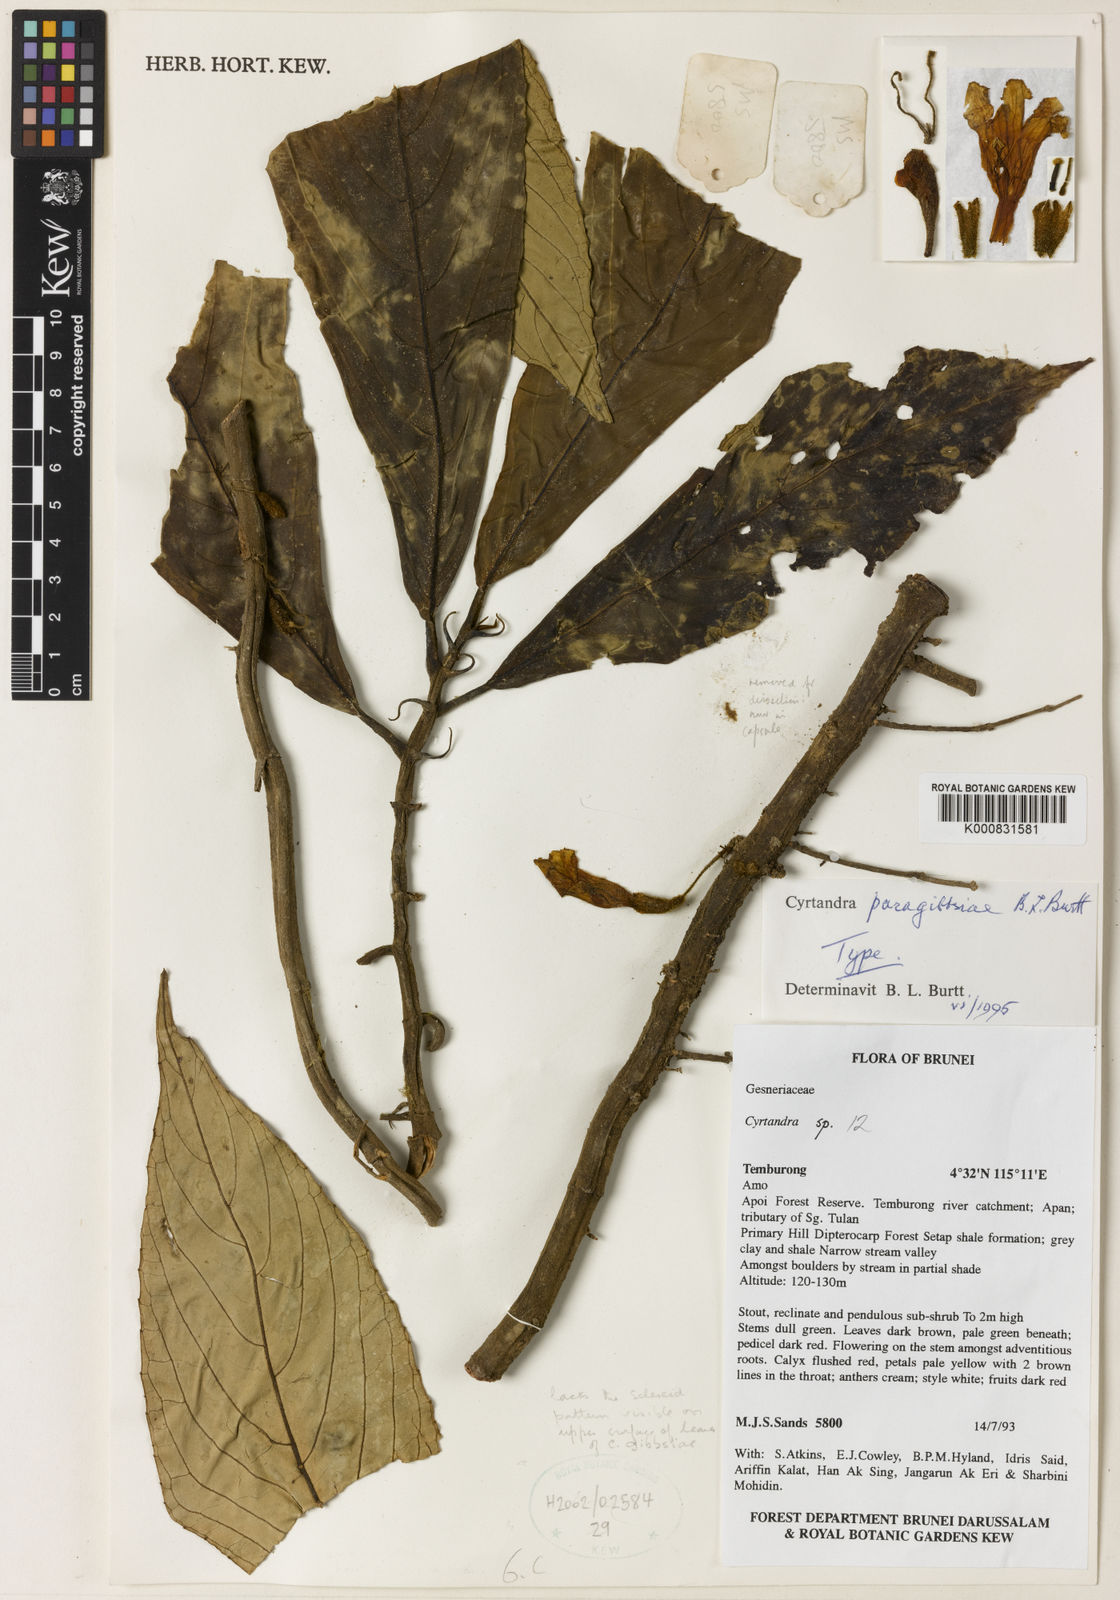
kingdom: Plantae
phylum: Tracheophyta
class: Magnoliopsida
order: Lamiales
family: Gesneriaceae
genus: Cyrtandra
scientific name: Cyrtandra paragibbsiae
